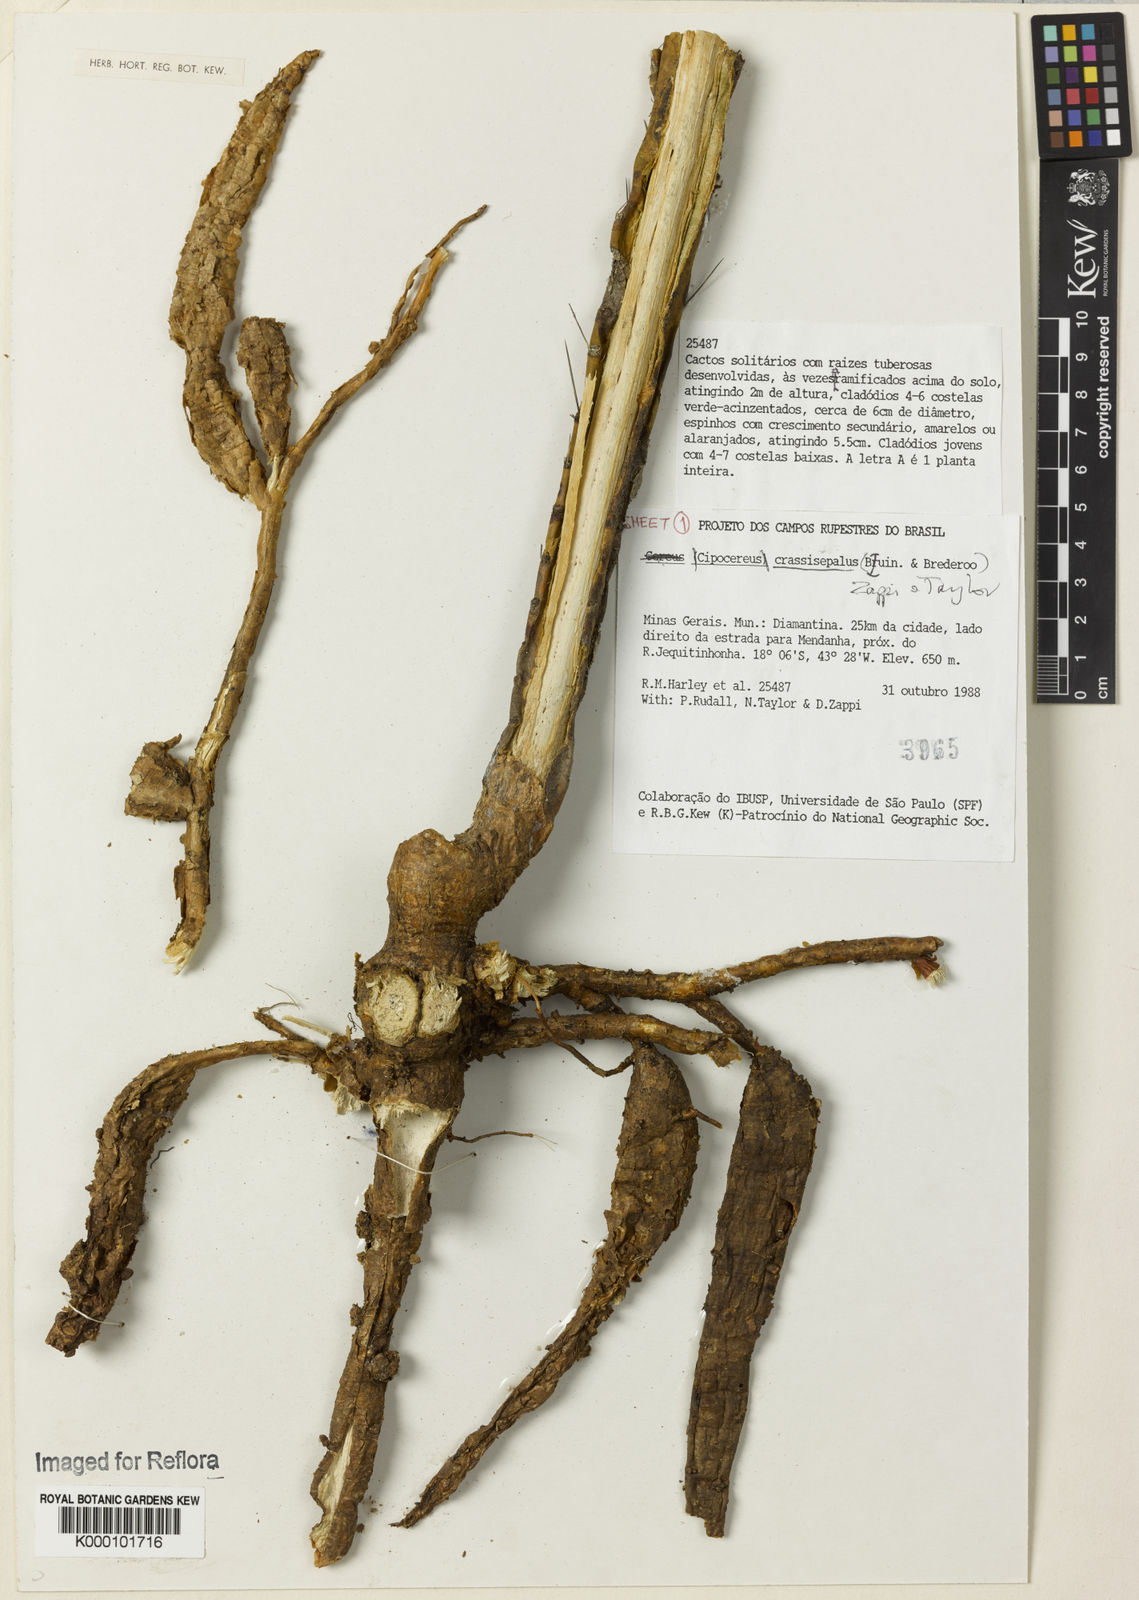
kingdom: Plantae
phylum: Tracheophyta
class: Magnoliopsida
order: Caryophyllales
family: Cactaceae
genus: Cipocereus
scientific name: Cipocereus crassisepalus
